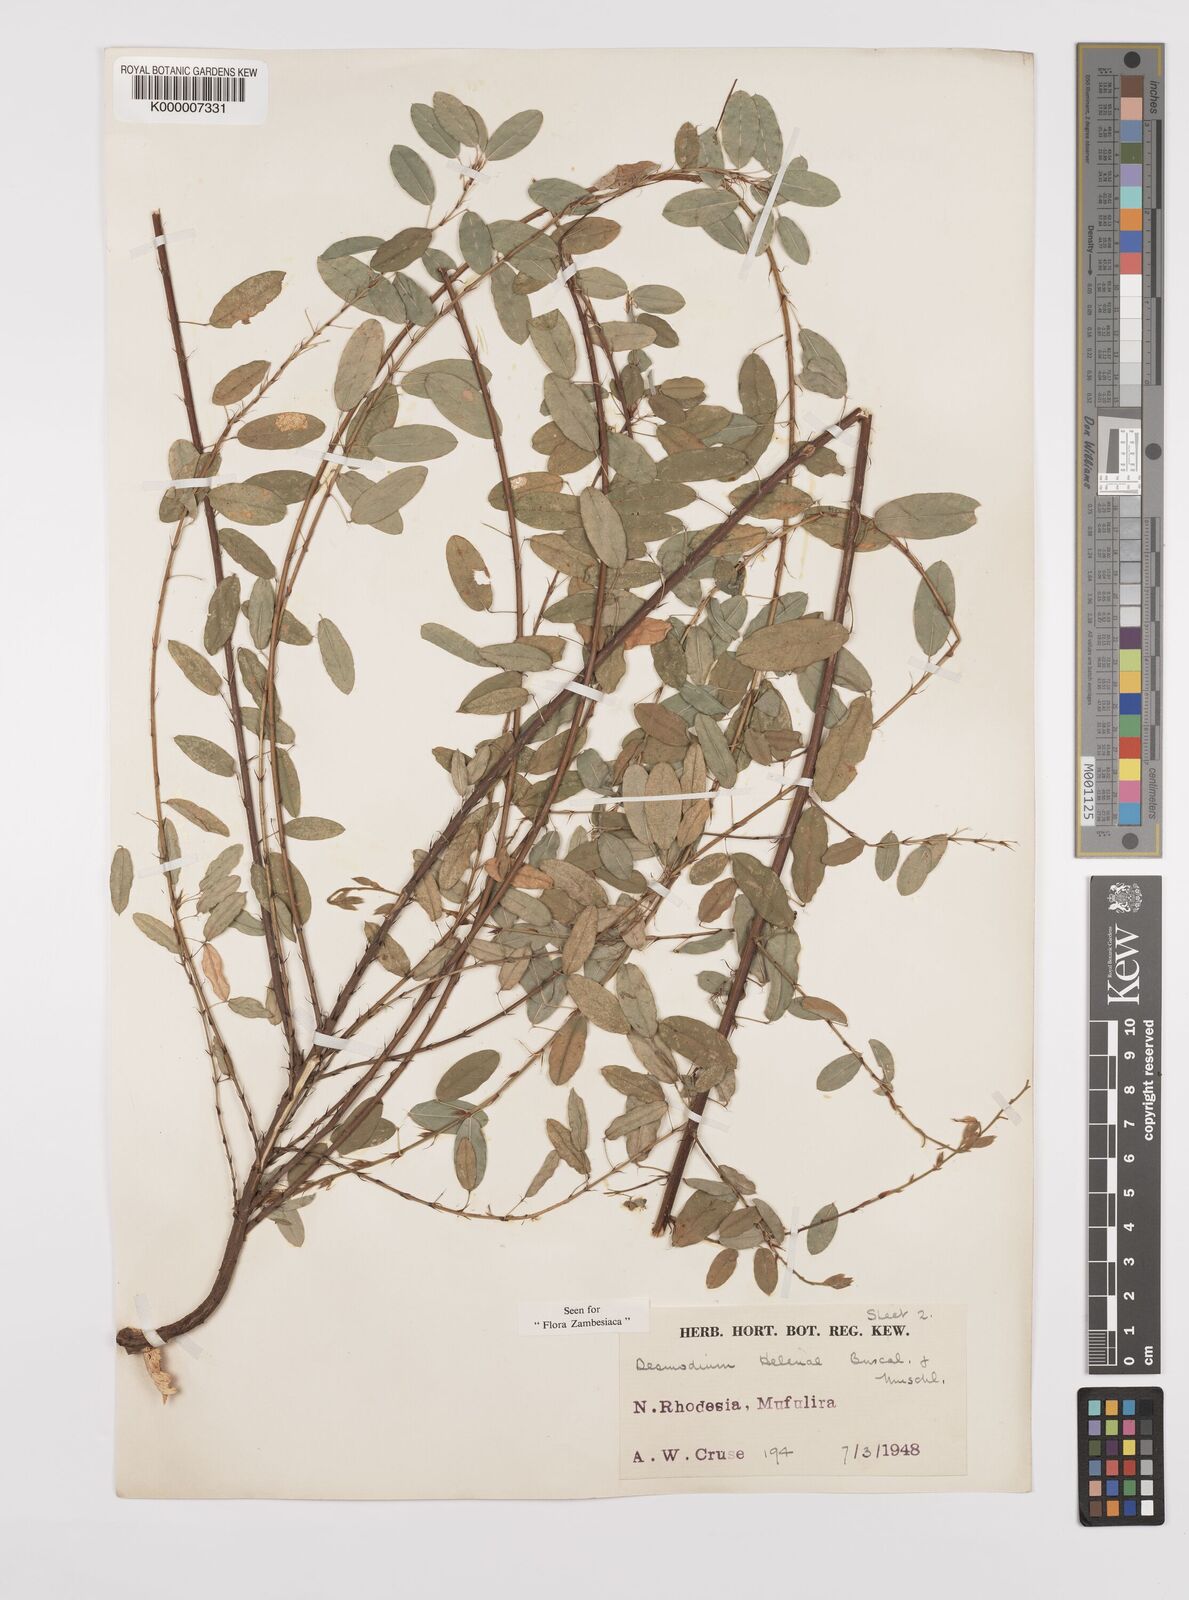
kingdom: Plantae
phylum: Tracheophyta
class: Magnoliopsida
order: Fabales
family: Fabaceae
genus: Grona
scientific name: Grona helenae
